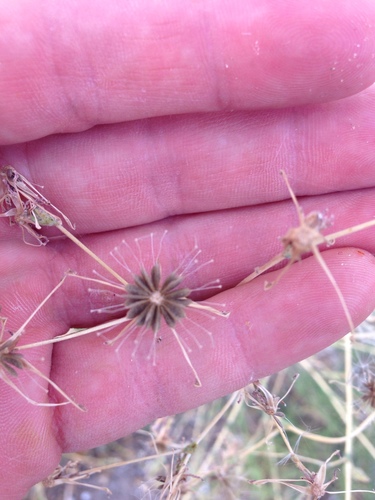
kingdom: Plantae
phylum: Tracheophyta
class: Magnoliopsida
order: Asterales
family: Asteraceae
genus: Lactuca
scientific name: Lactuca serriola
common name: Prickly lettuce
